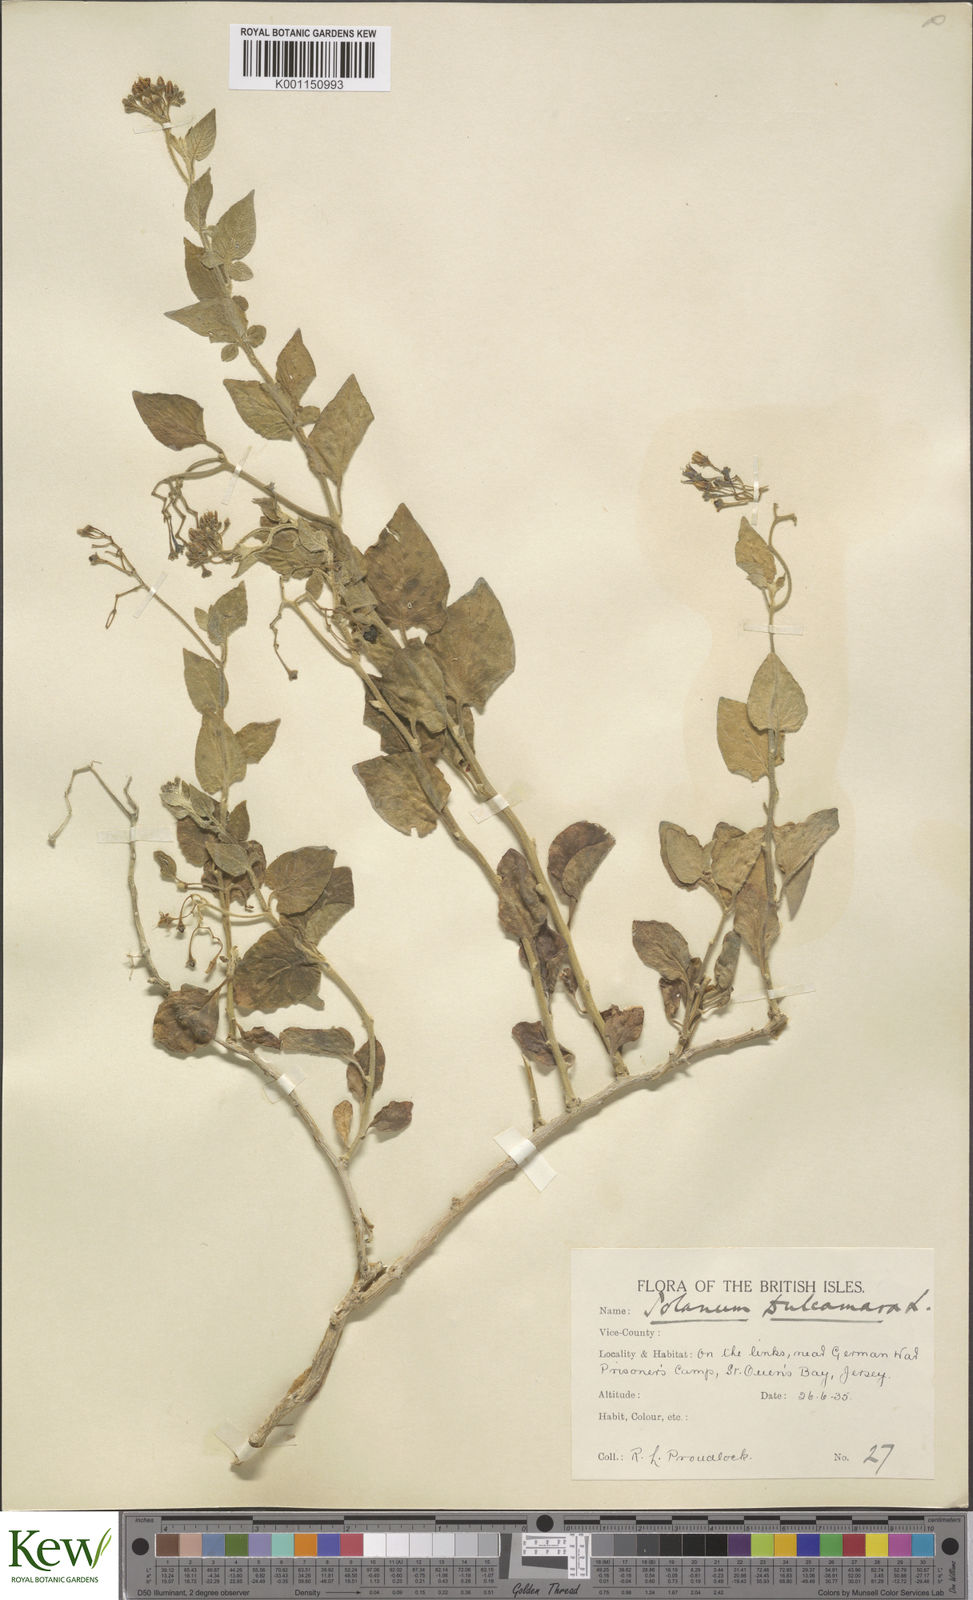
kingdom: Plantae
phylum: Tracheophyta
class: Magnoliopsida
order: Solanales
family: Solanaceae
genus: Solanum
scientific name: Solanum dulcamara
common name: Climbing nightshade
